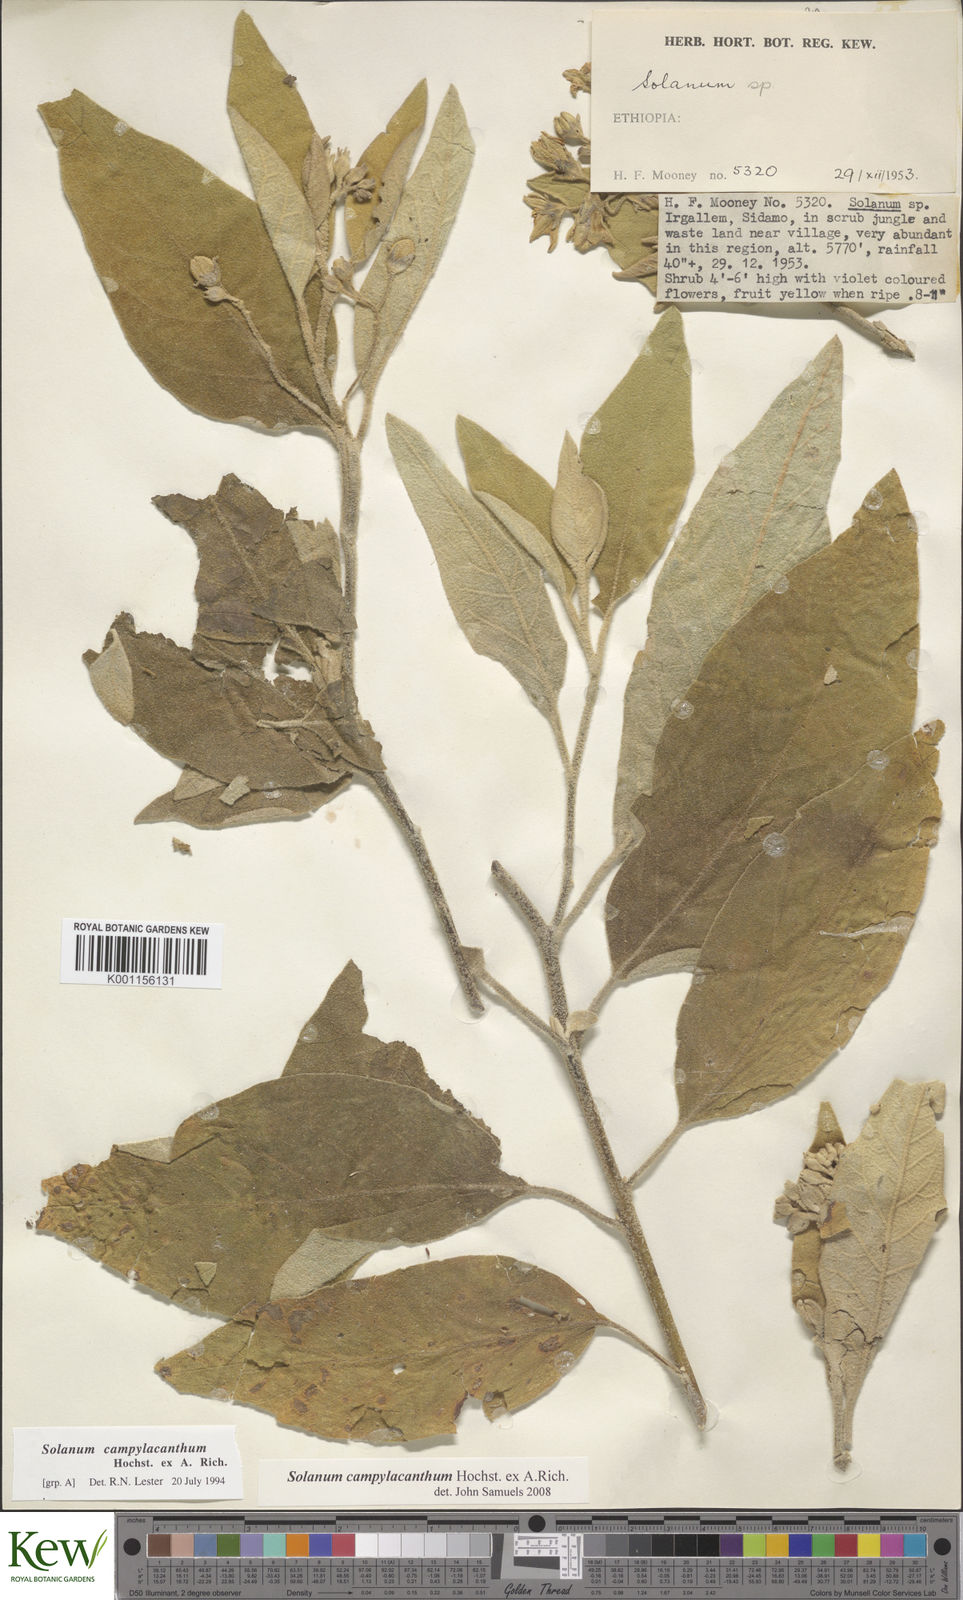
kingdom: Plantae
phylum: Tracheophyta
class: Magnoliopsida
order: Solanales
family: Solanaceae
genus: Solanum
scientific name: Solanum campylacanthum
